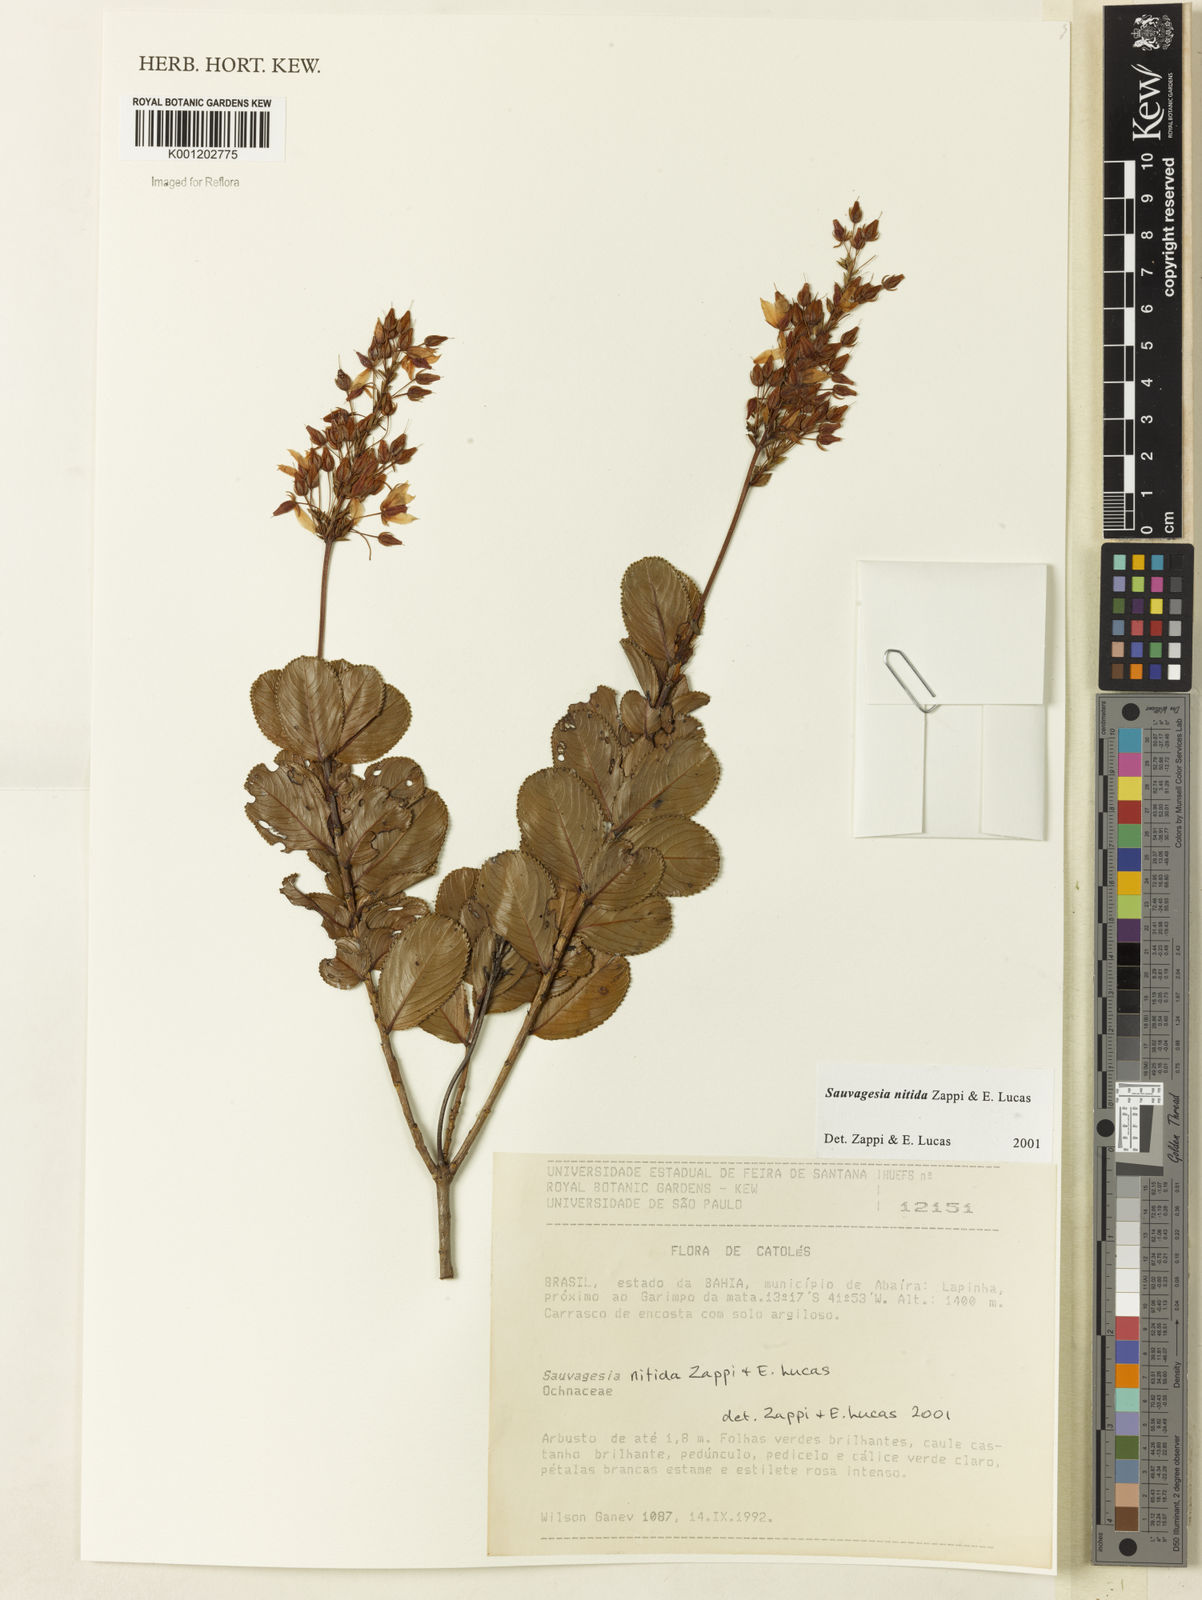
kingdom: Plantae
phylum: Tracheophyta
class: Magnoliopsida
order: Malpighiales
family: Ochnaceae
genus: Sauvagesia
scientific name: Sauvagesia nitida
